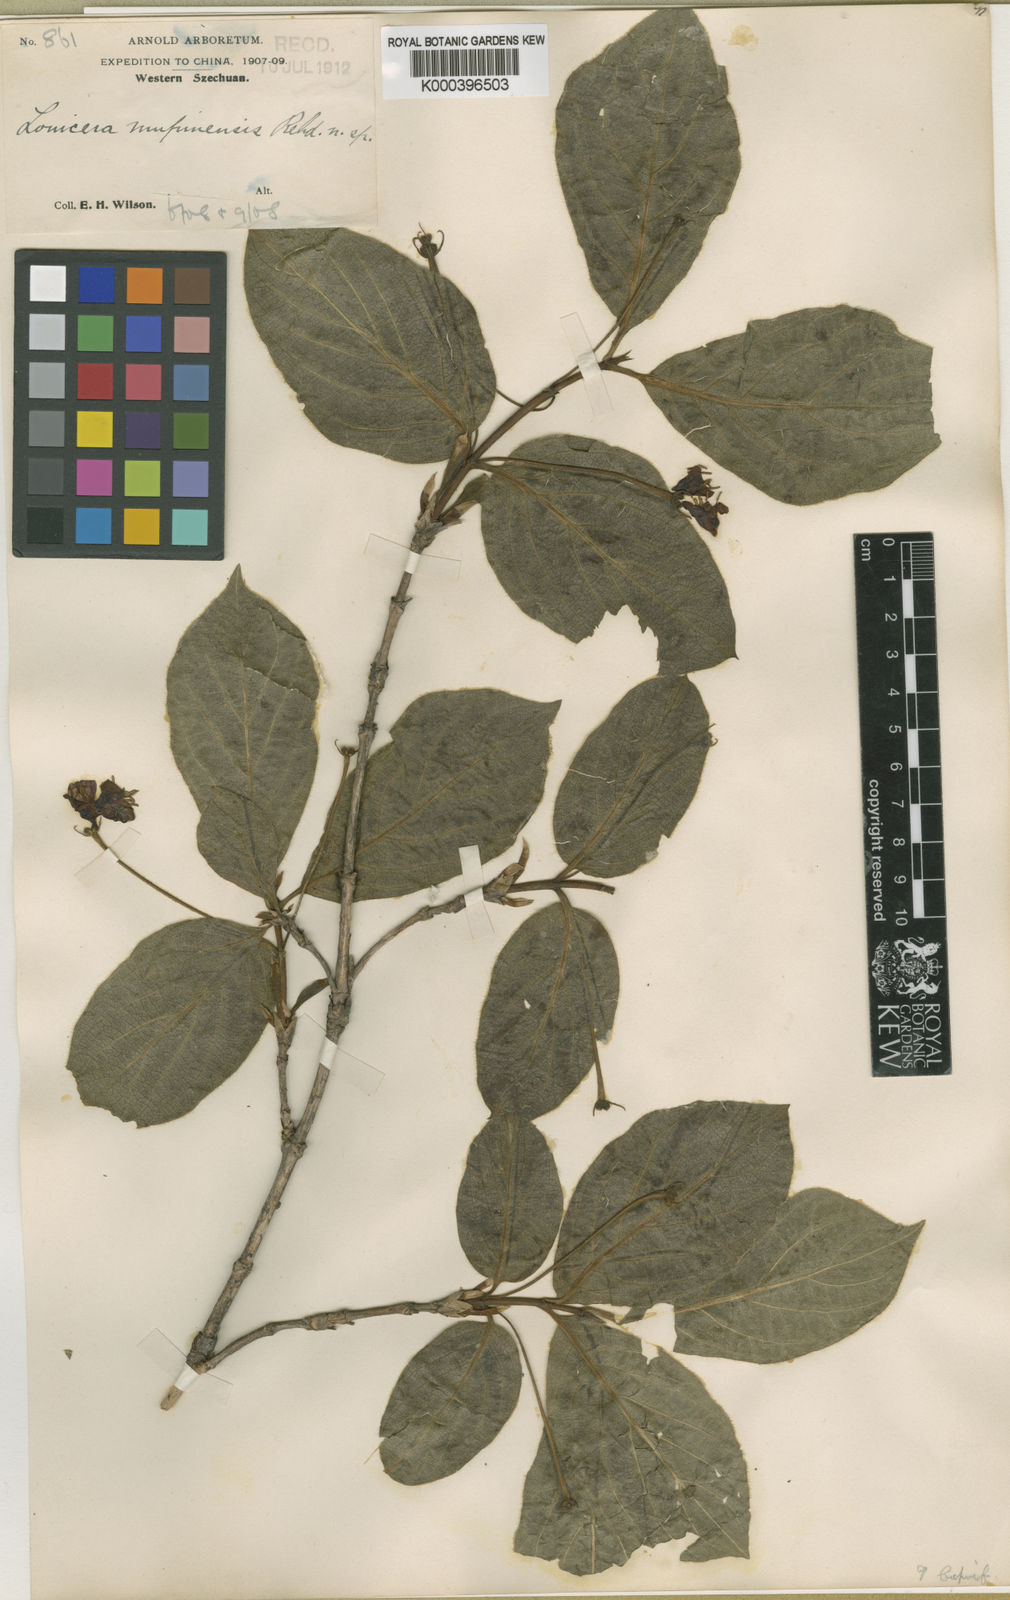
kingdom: Plantae
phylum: Tracheophyta
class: Magnoliopsida
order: Dipsacales
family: Caprifoliaceae
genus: Lonicera
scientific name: Lonicera webbiana
